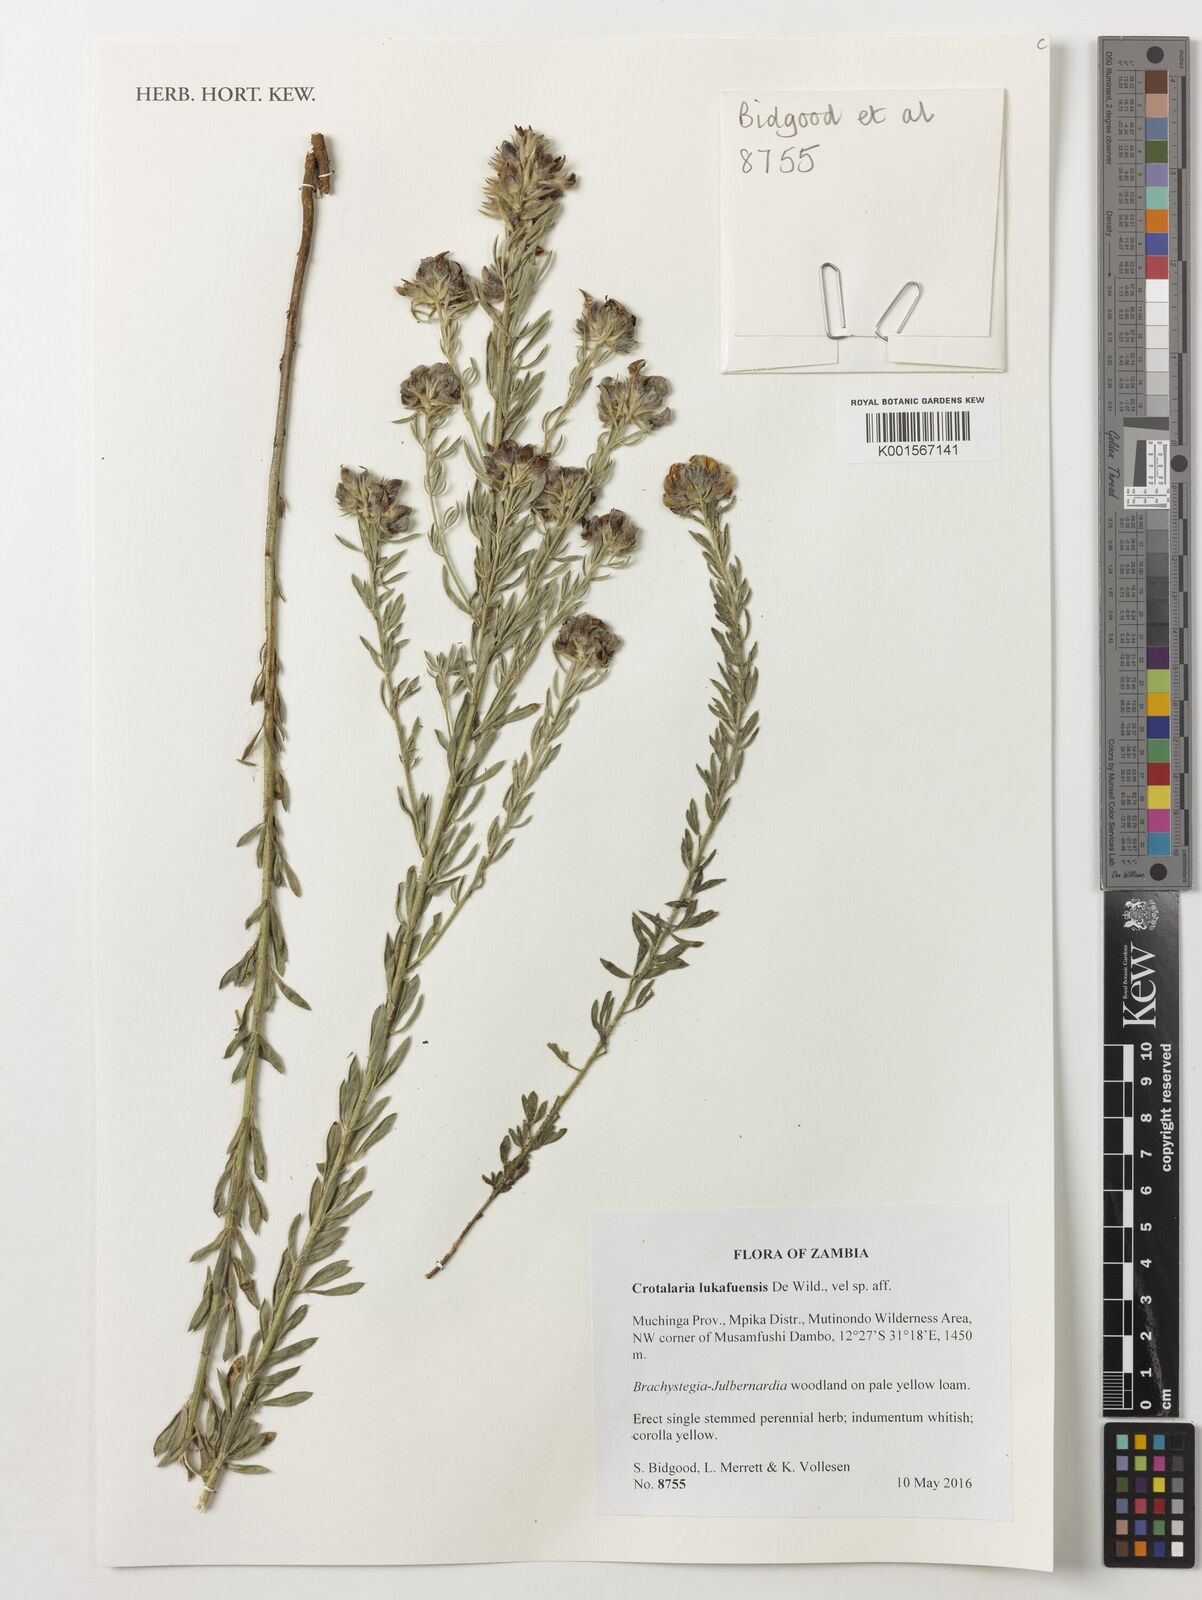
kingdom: Plantae
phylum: Tracheophyta
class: Magnoliopsida
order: Fabales
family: Fabaceae
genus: Crotalaria
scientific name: Crotalaria lukafuensis
